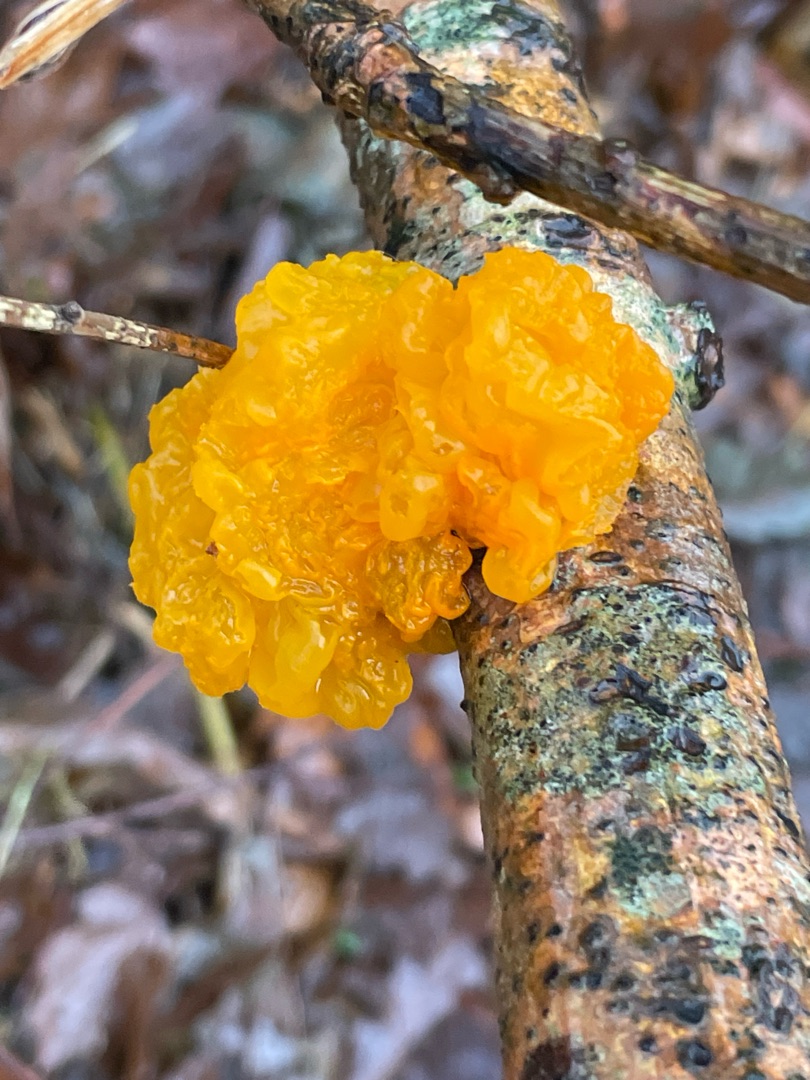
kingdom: Fungi
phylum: Basidiomycota
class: Tremellomycetes
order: Tremellales
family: Tremellaceae
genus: Tremella
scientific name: Tremella mesenterica
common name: Gul bævresvamp
